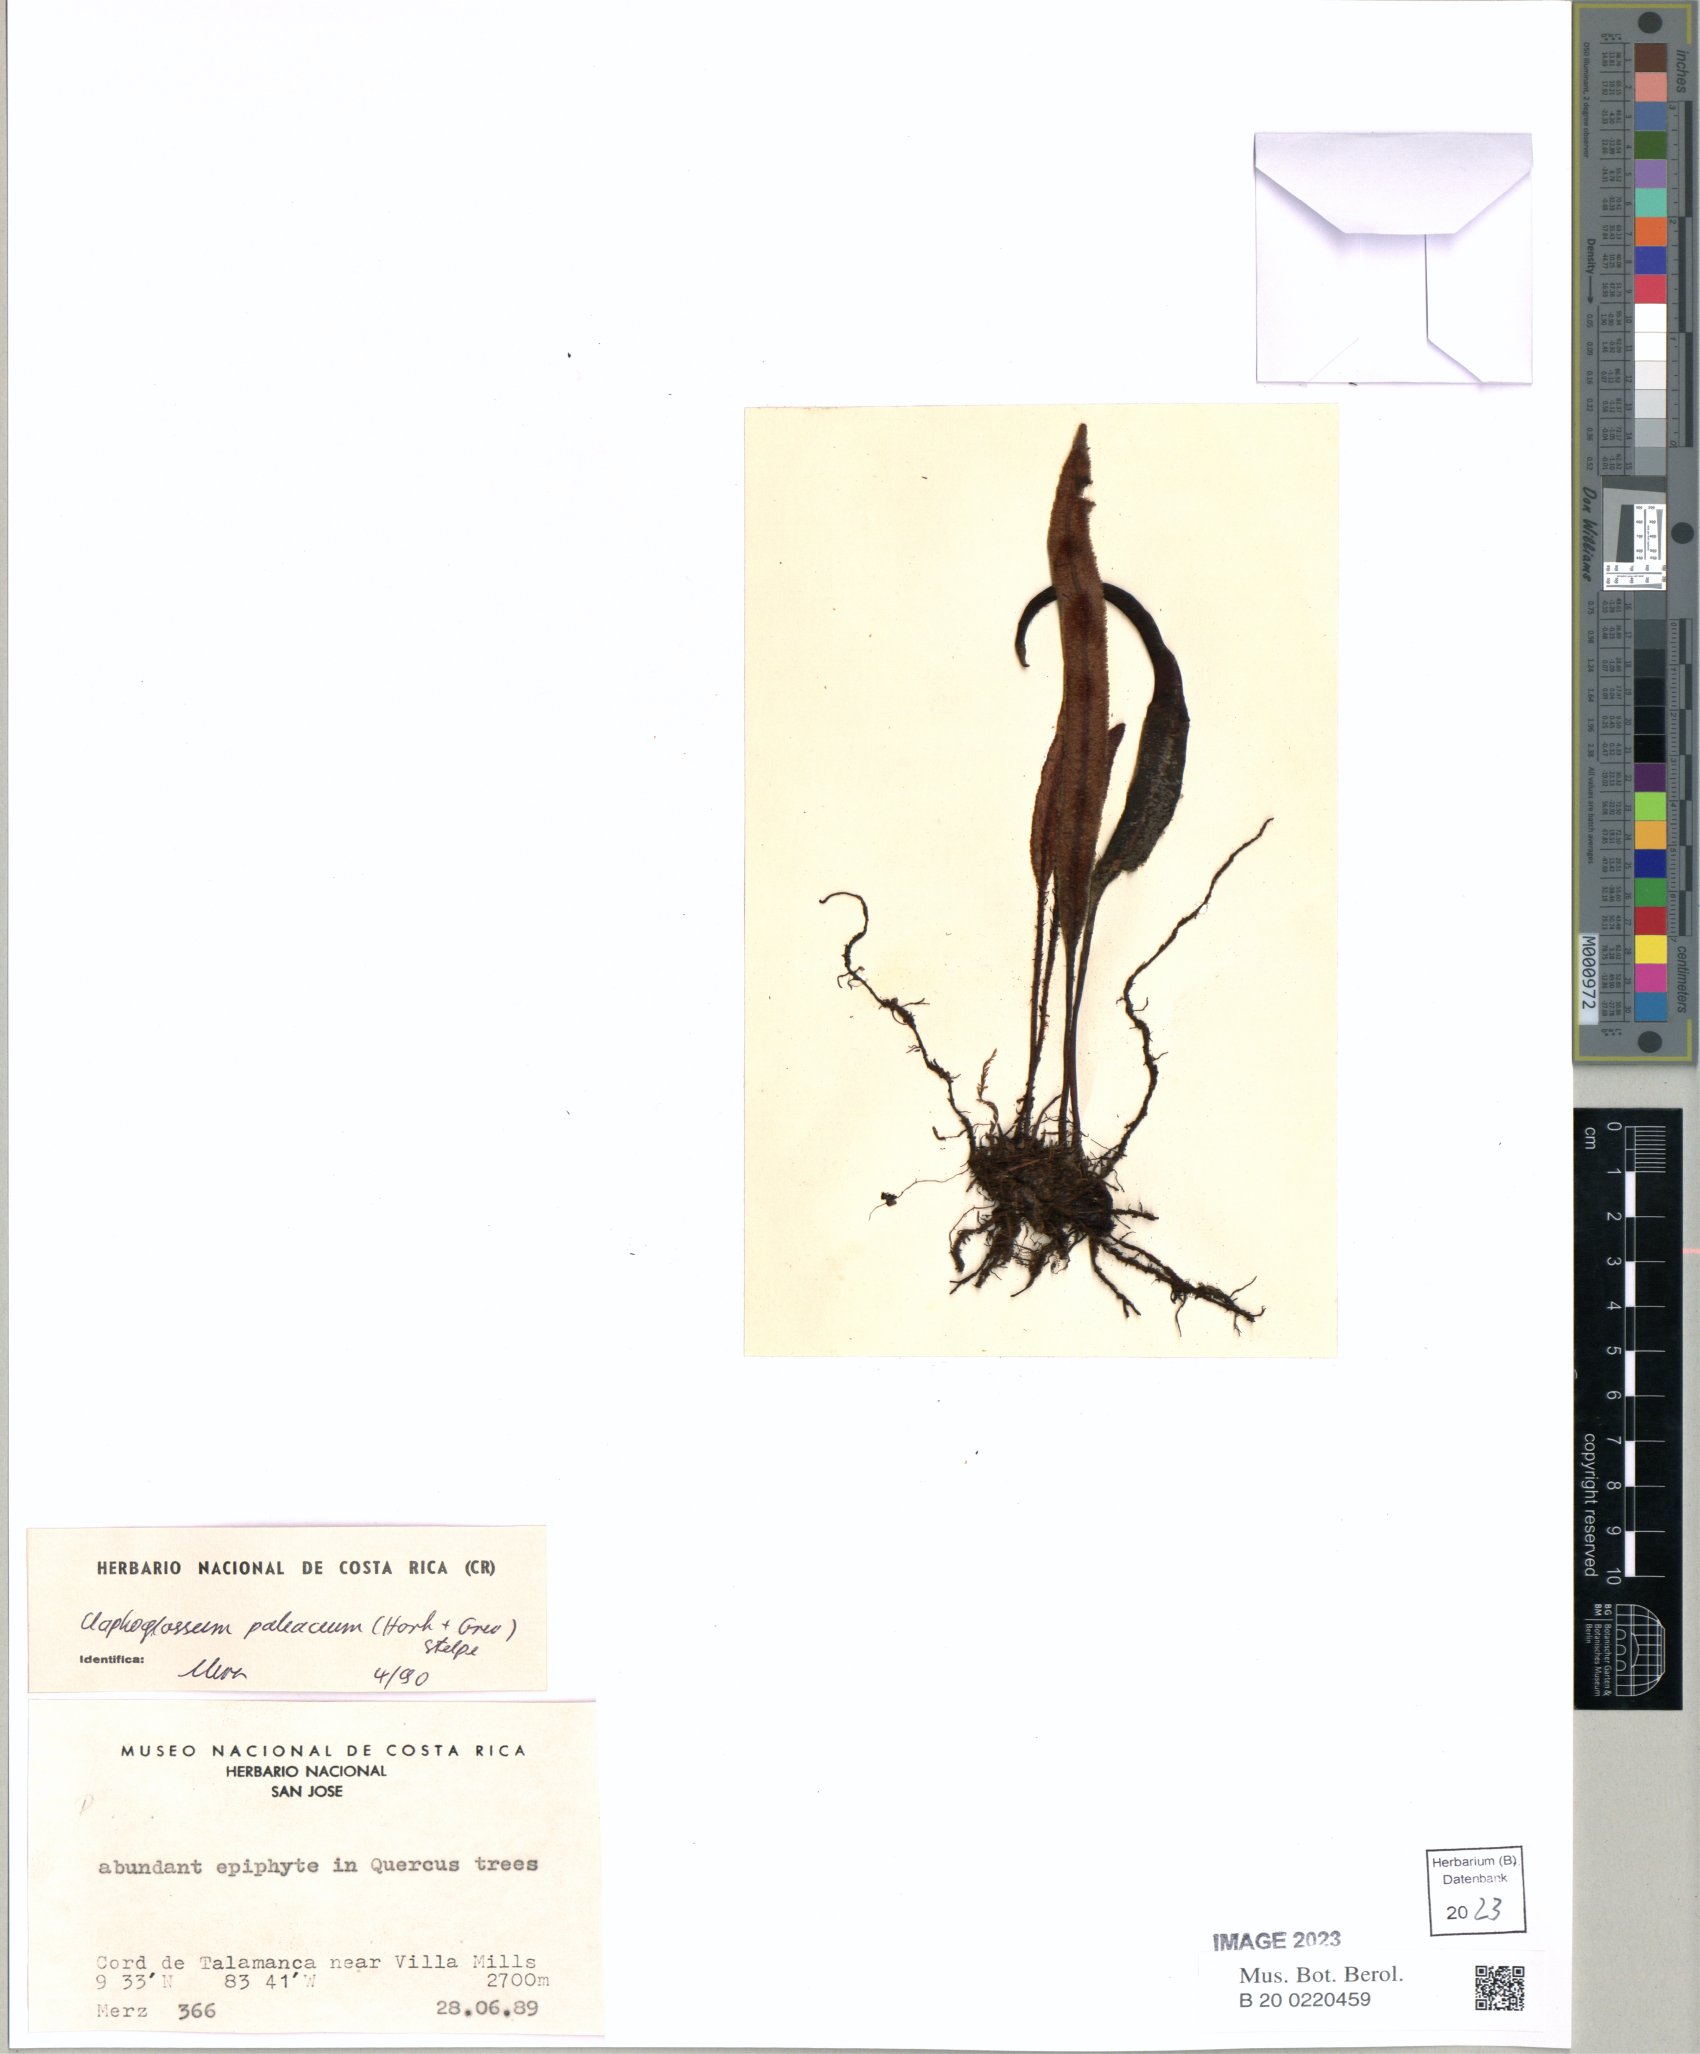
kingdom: Plantae
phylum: Tracheophyta
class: Polypodiopsida
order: Polypodiales
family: Dryopteridaceae
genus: Elaphoglossum
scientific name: Elaphoglossum paleaceum
